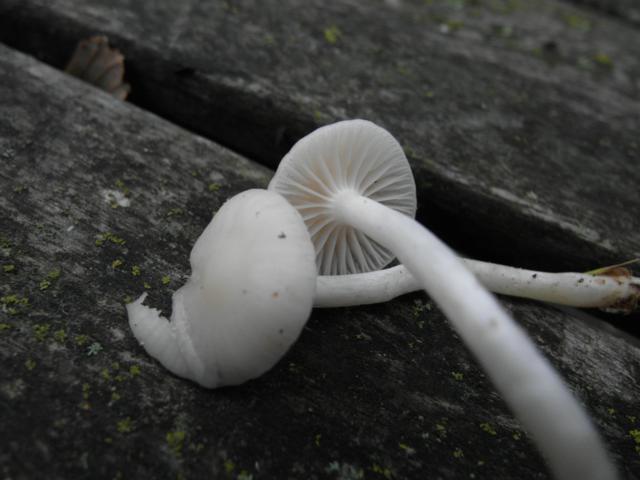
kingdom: Fungi
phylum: Basidiomycota
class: Agaricomycetes
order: Agaricales
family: Hygrophoraceae
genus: Cuphophyllus
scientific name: Cuphophyllus virgineus
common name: snehvid vokshat
